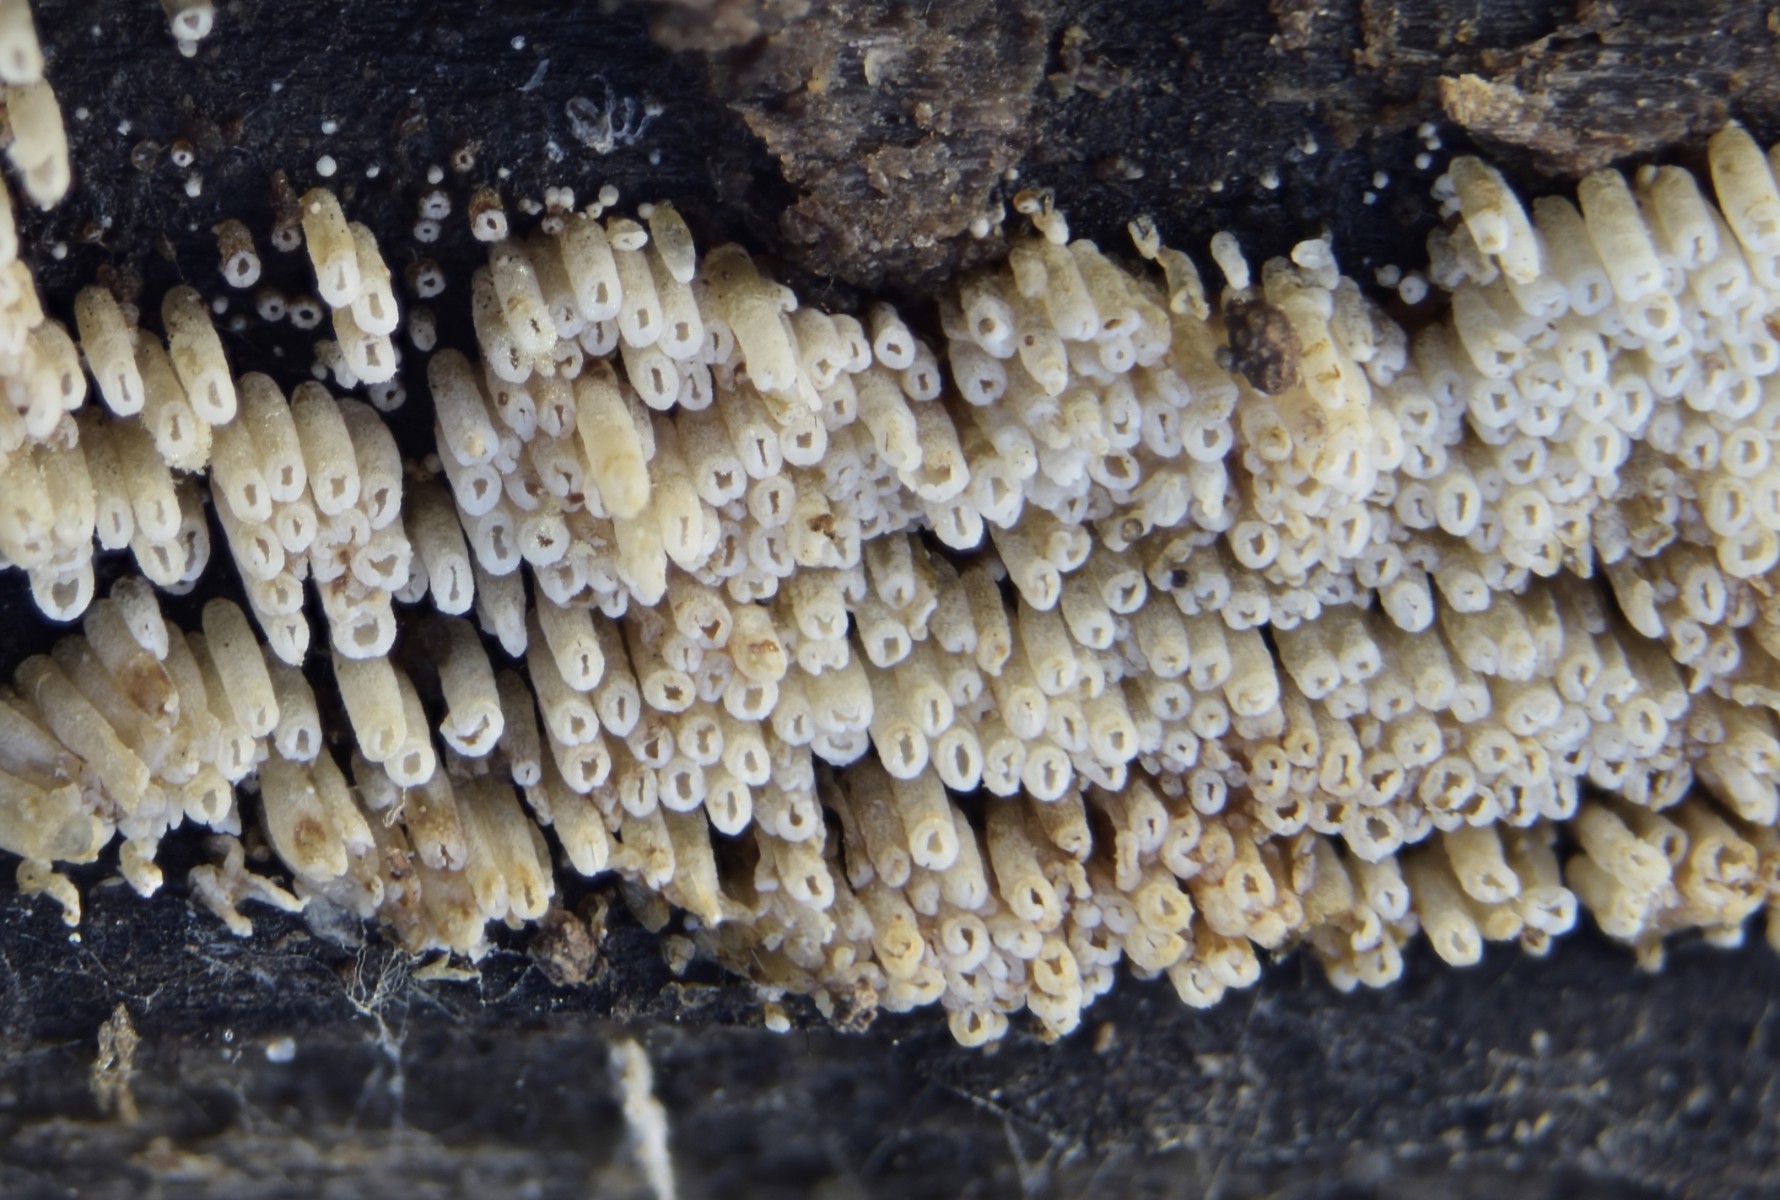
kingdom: Fungi
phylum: Basidiomycota
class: Agaricomycetes
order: Agaricales
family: Marasmiaceae
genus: Henningsomyces
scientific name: Henningsomyces candidus
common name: glat hængerør
